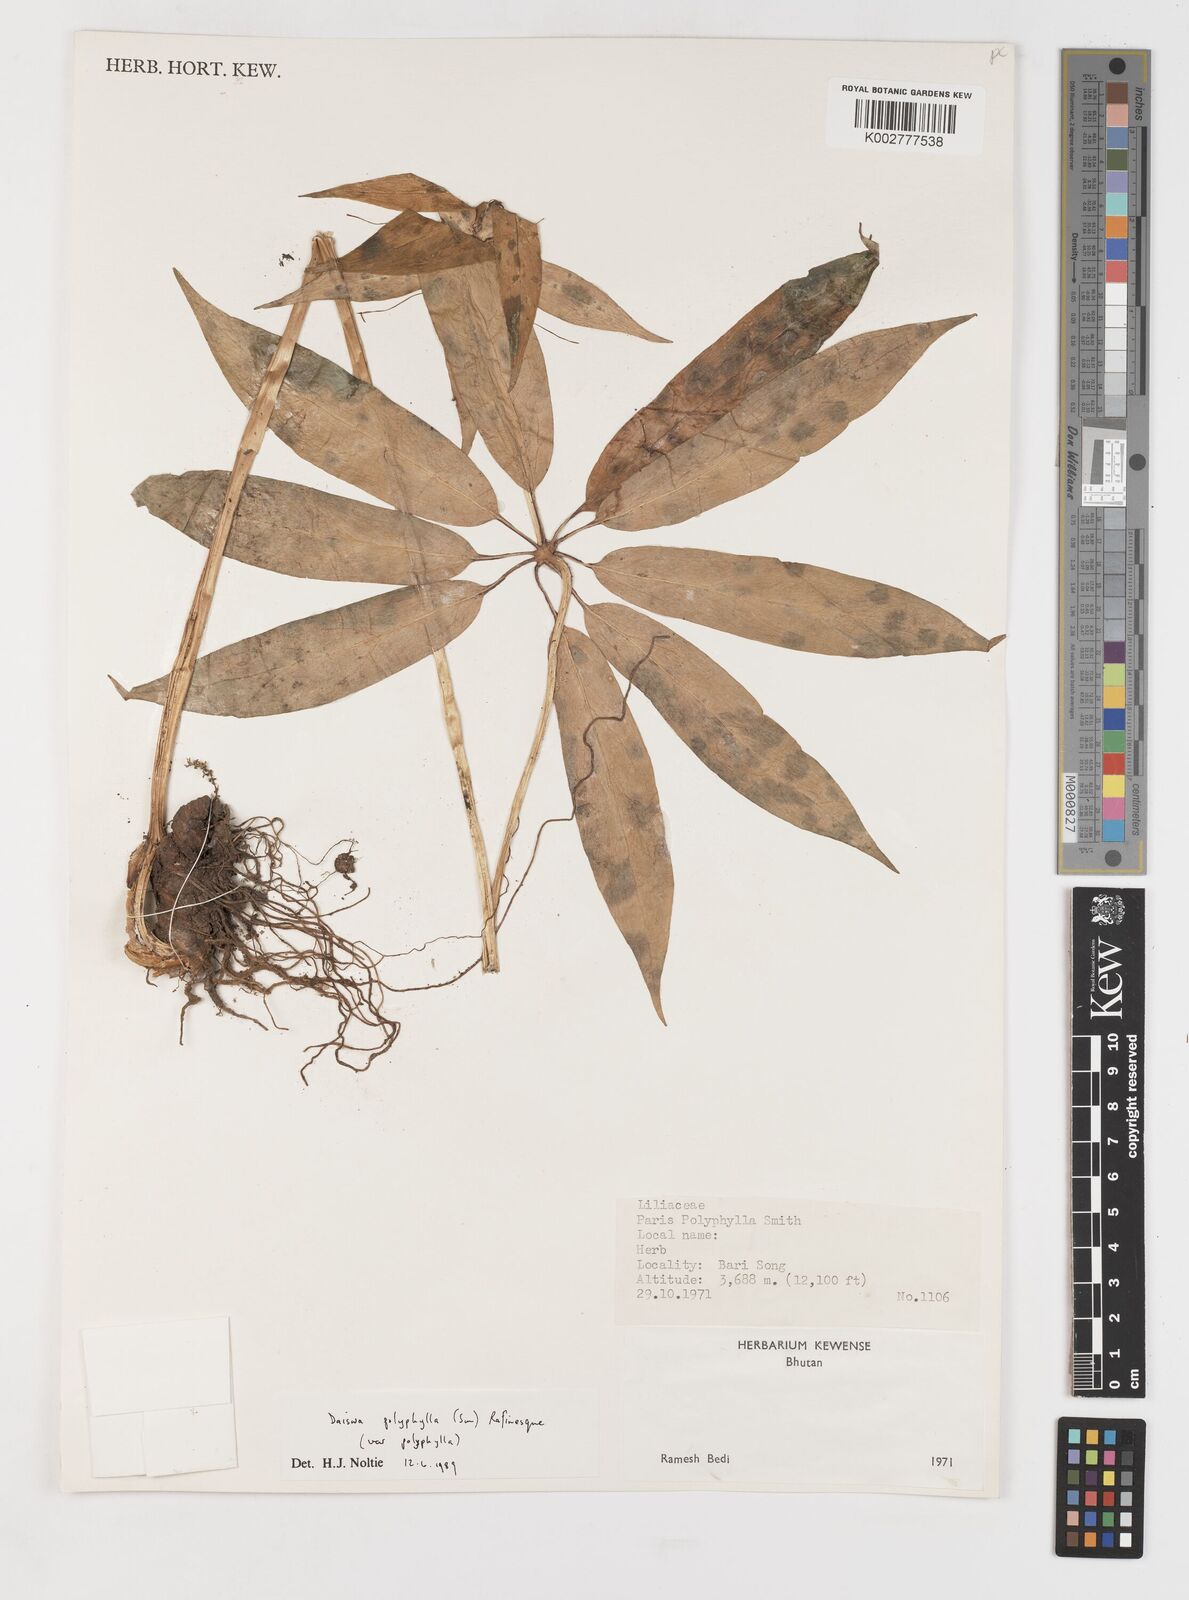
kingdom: Plantae
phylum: Tracheophyta
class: Liliopsida
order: Liliales
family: Melanthiaceae
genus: Paris
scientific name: Paris polyphylla
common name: Love apple
